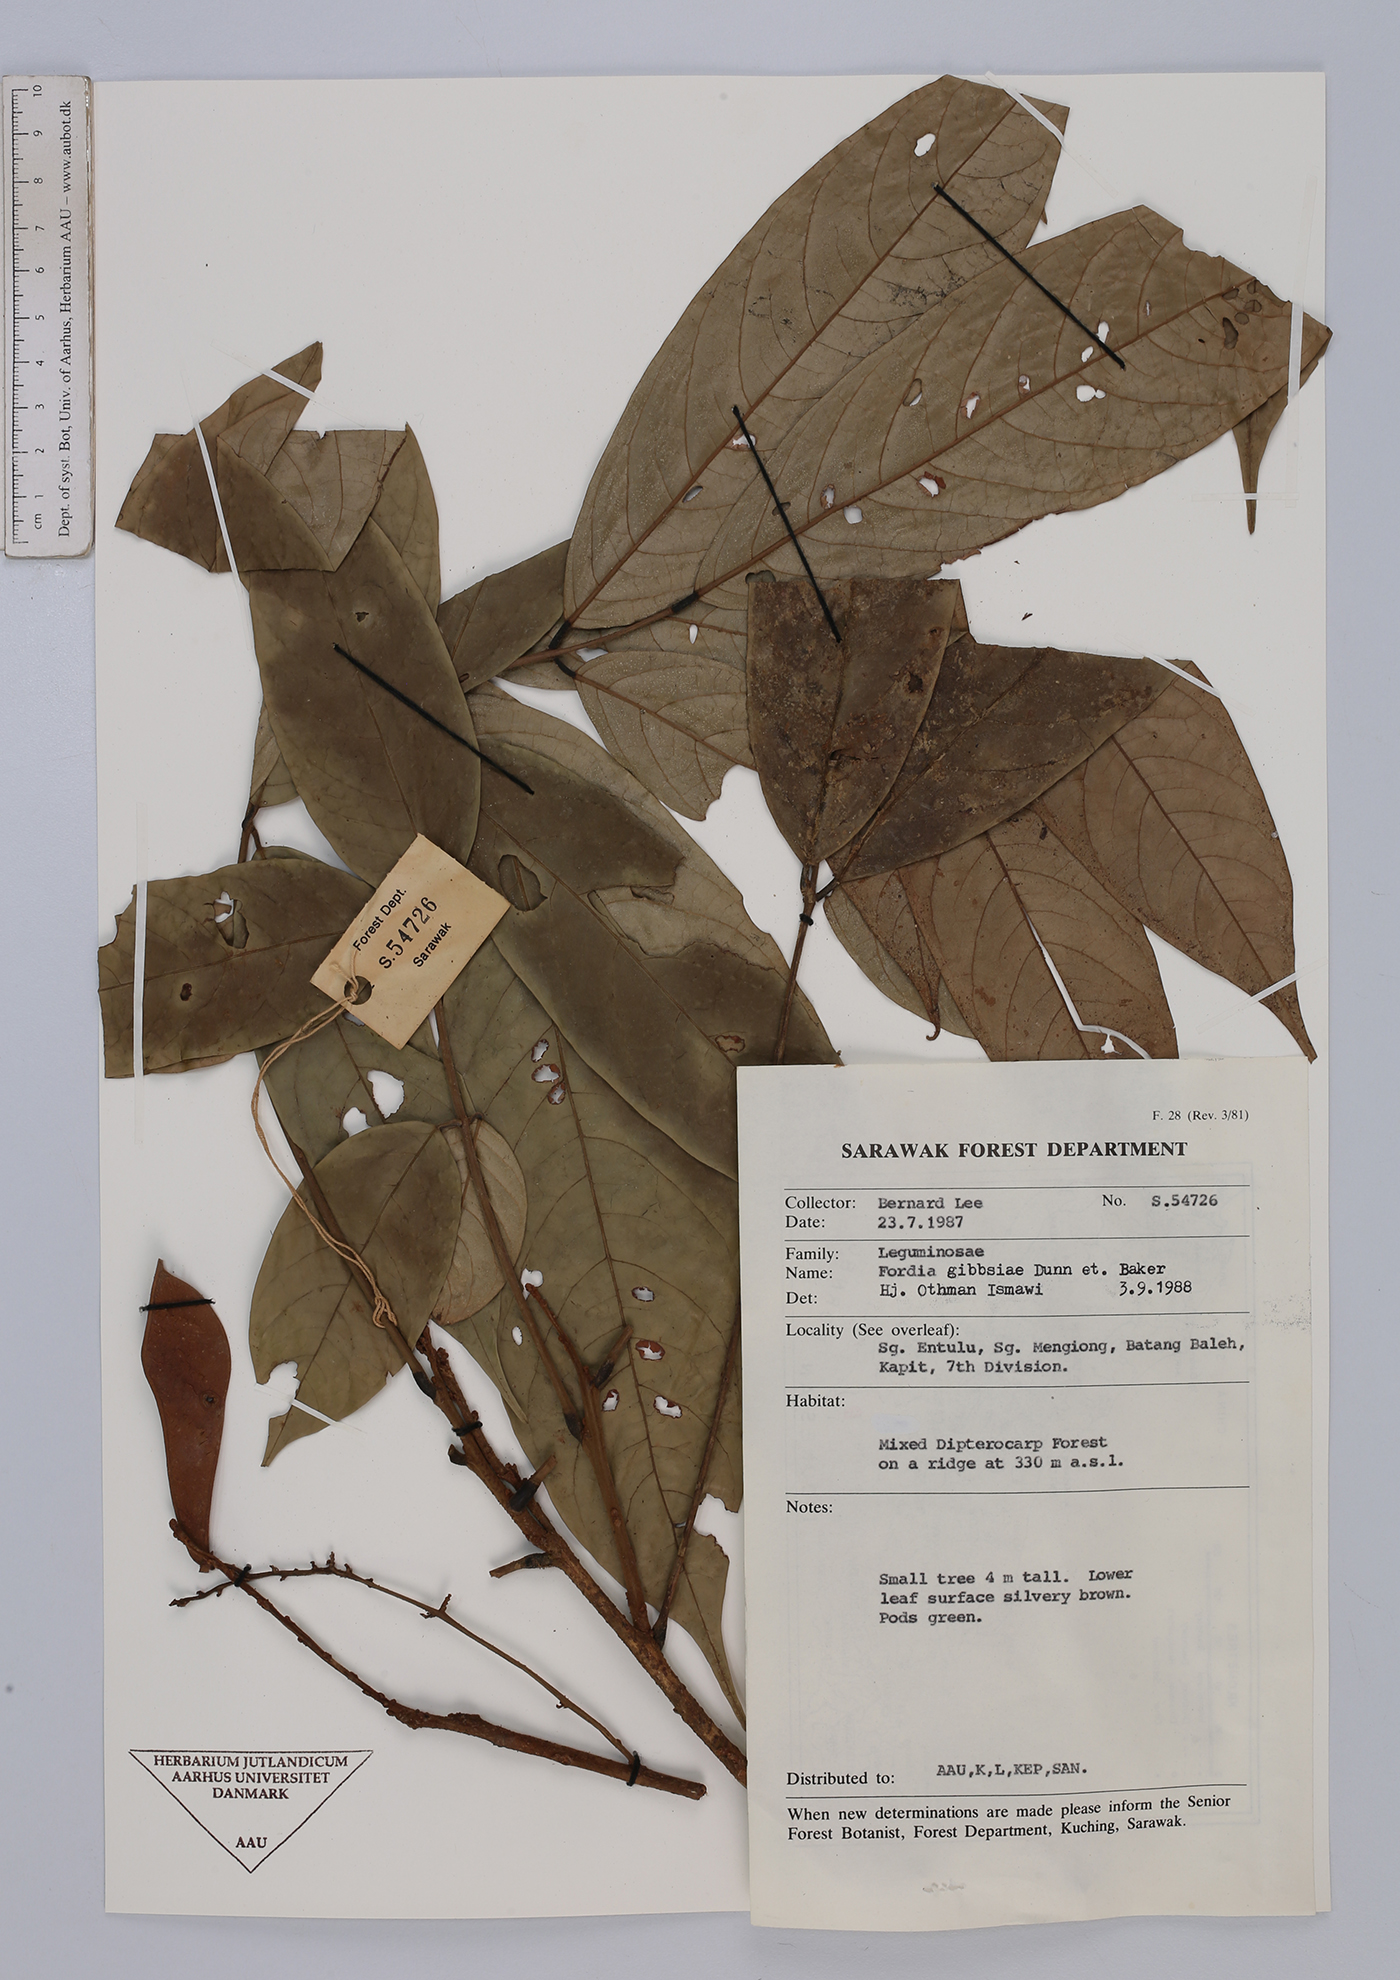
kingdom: Plantae
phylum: Tracheophyta
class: Magnoliopsida
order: Fabales
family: Fabaceae
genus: Fordia
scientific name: Fordia splendidissima
